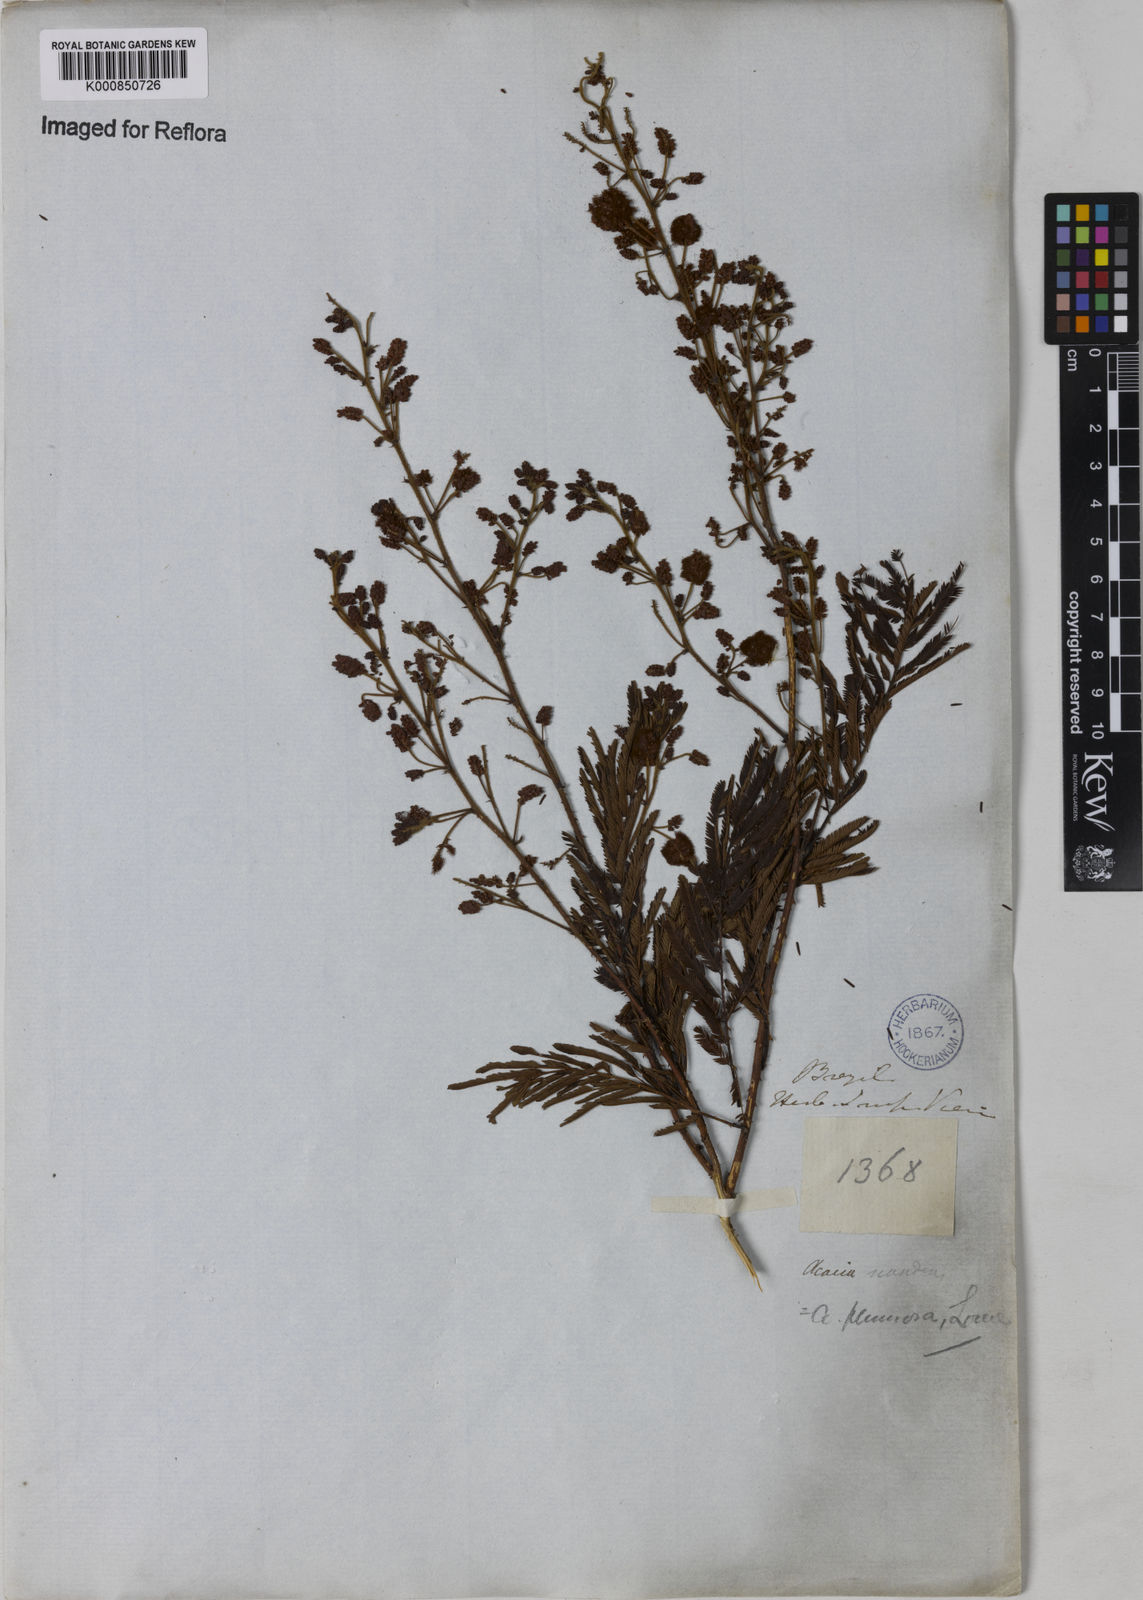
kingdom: Plantae
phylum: Tracheophyta
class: Magnoliopsida
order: Fabales
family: Fabaceae
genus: Senegalia
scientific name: Senegalia lowei
